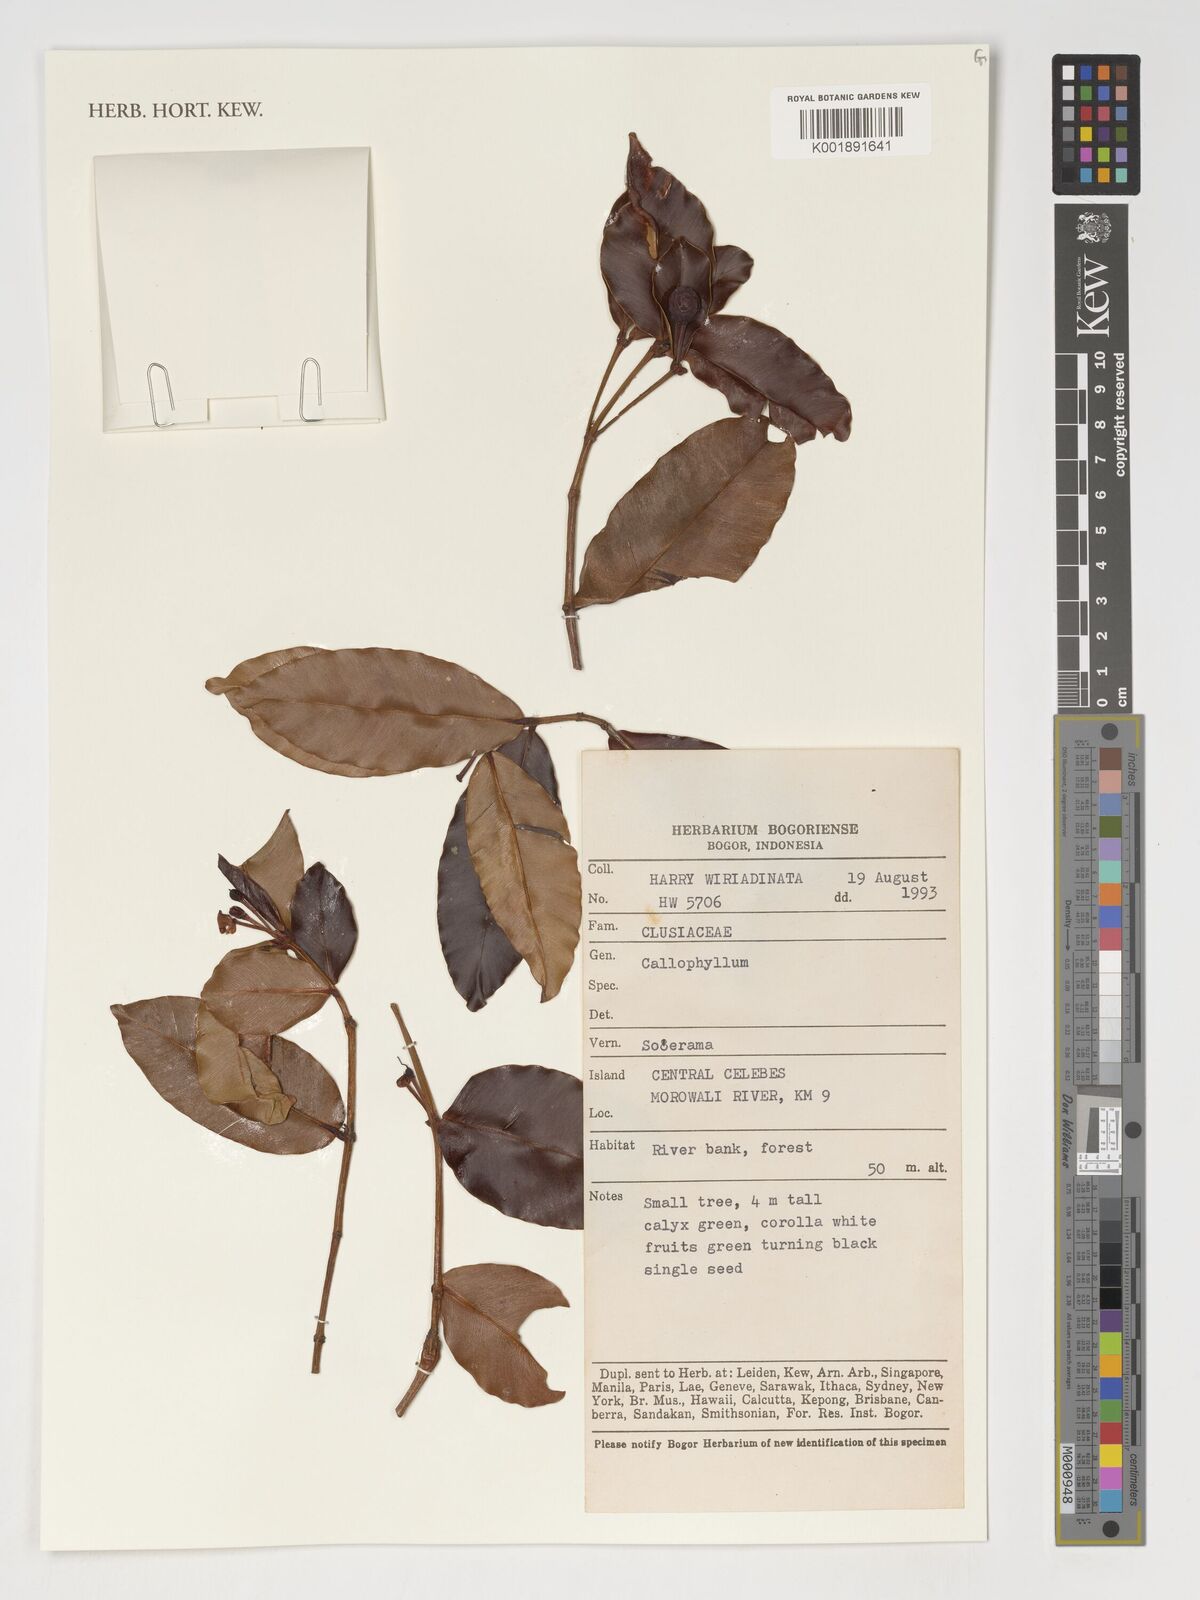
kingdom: Plantae
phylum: Tracheophyta
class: Magnoliopsida
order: Malpighiales
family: Calophyllaceae
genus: Calophyllum
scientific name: Calophyllum
